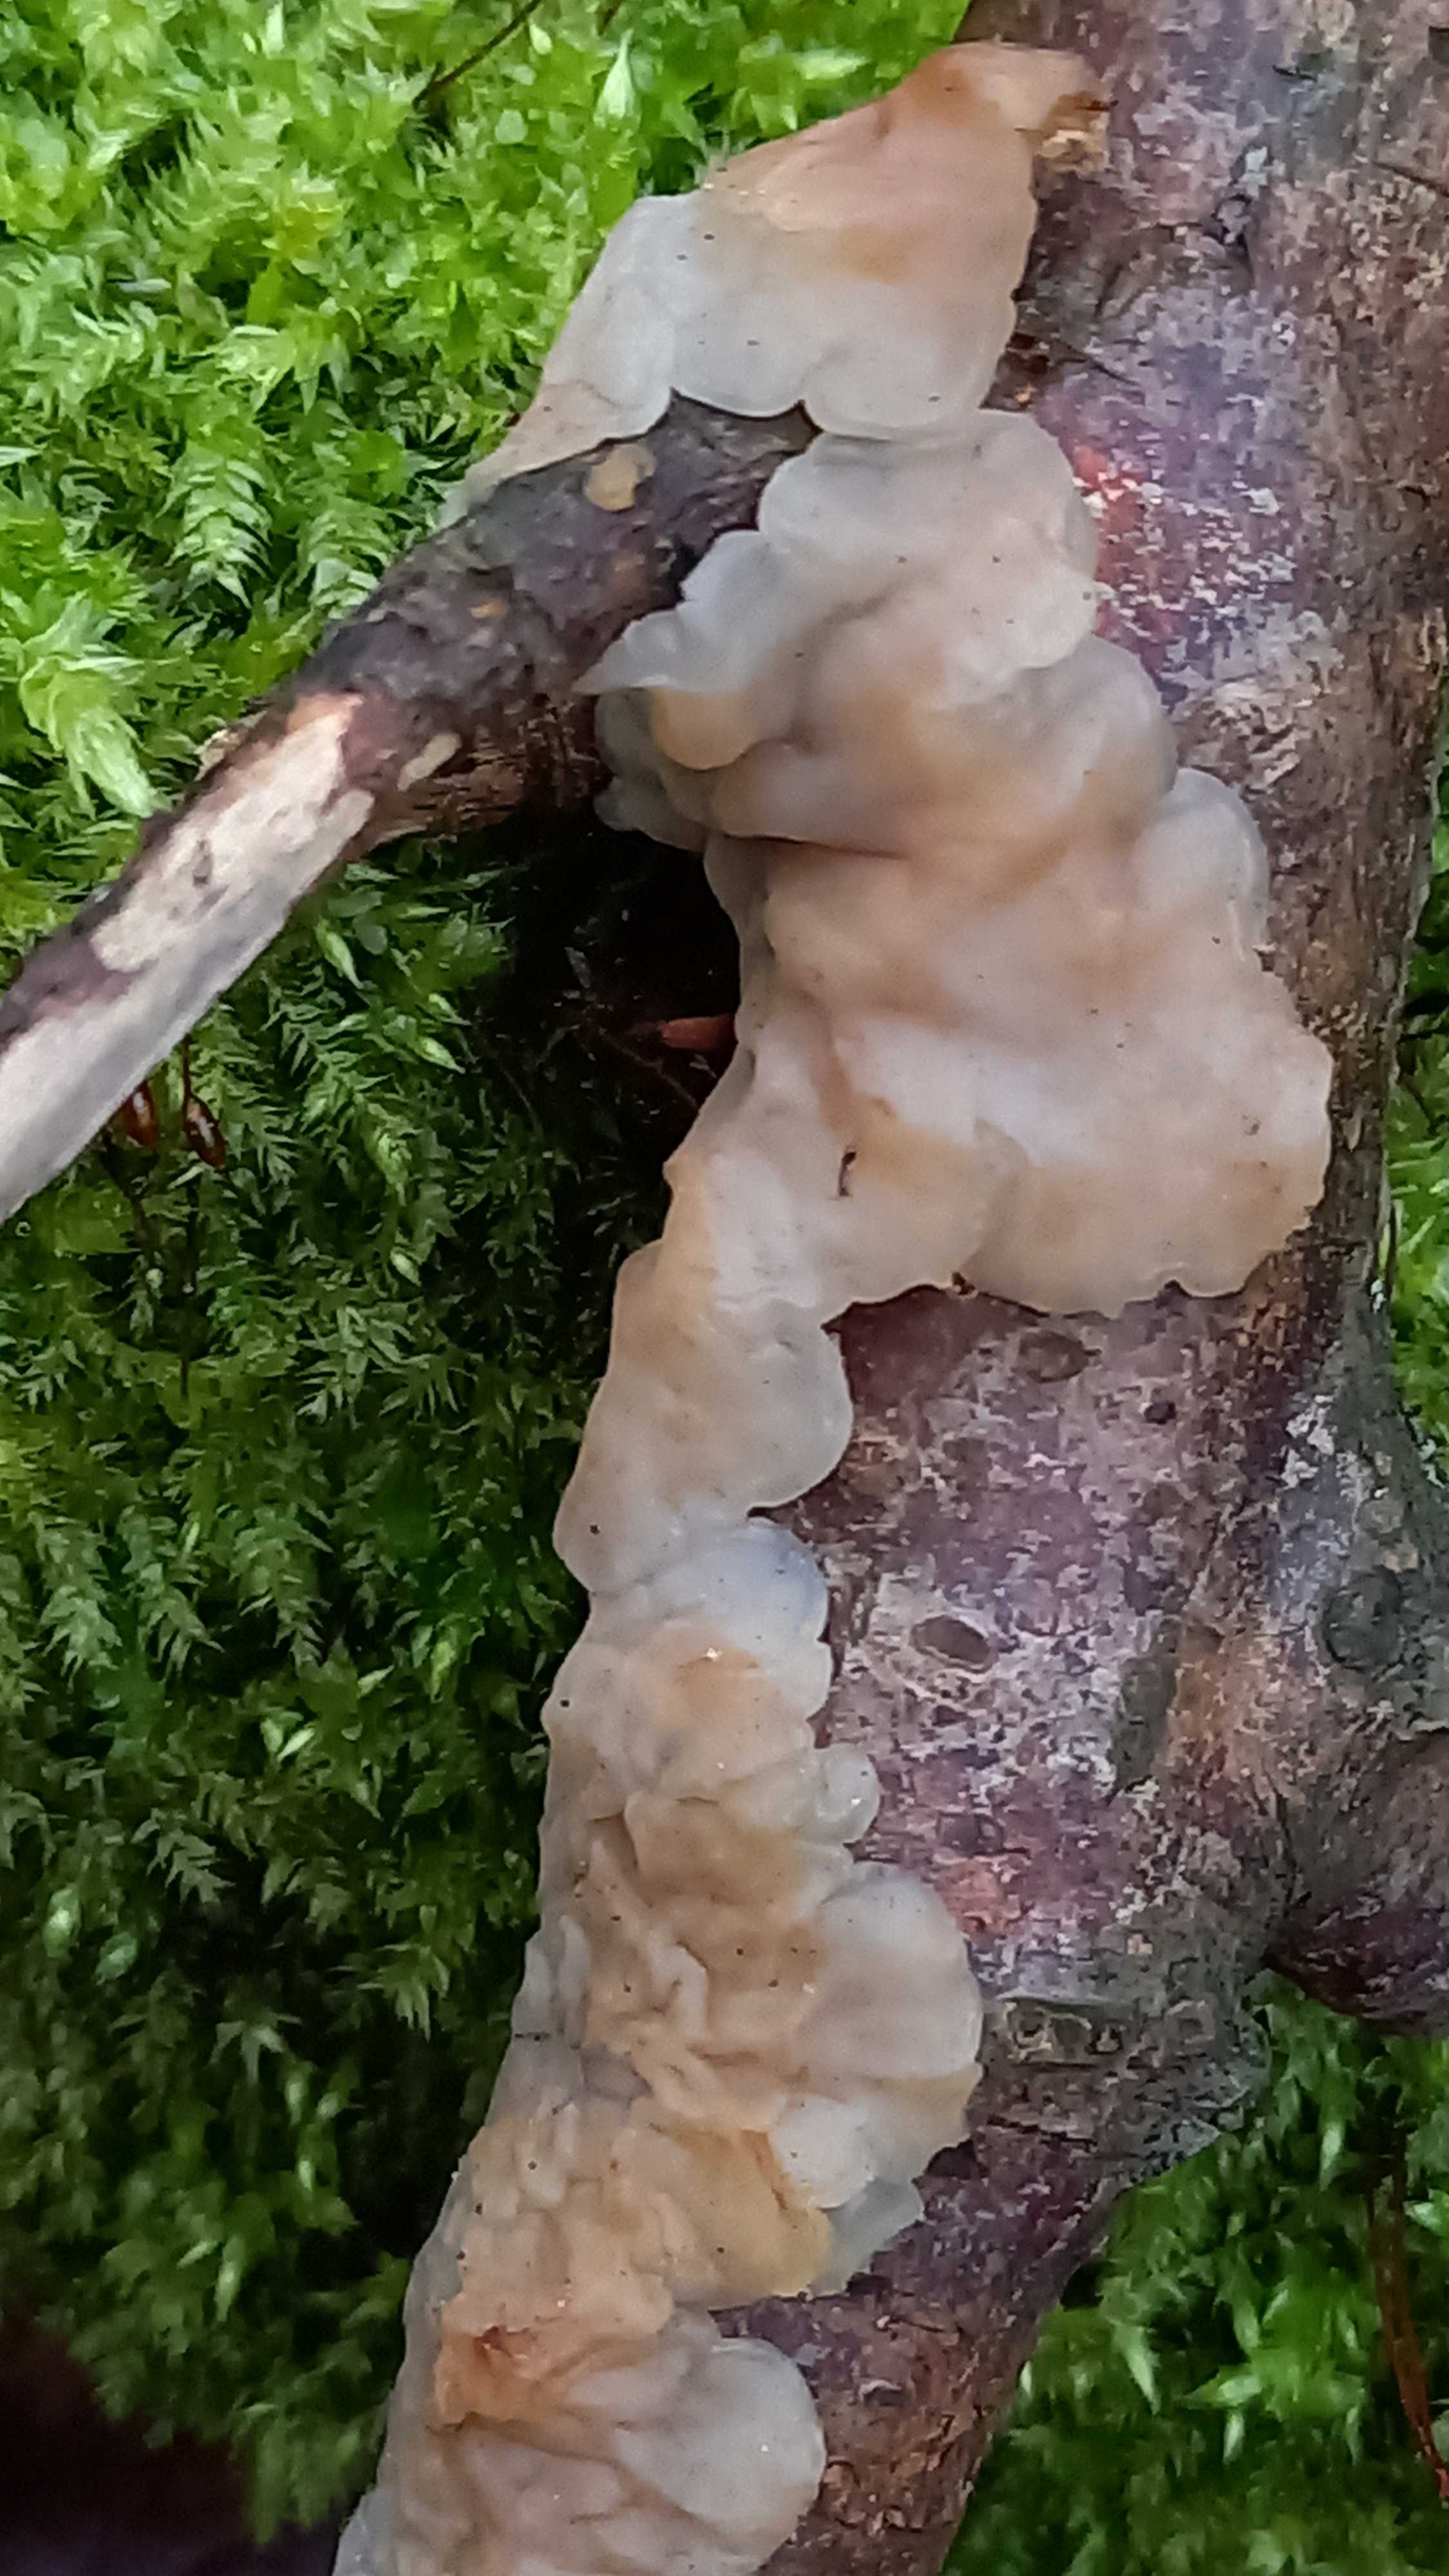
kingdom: Fungi
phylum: Basidiomycota
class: Agaricomycetes
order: Auriculariales
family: Auriculariaceae
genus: Exidia
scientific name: Exidia thuretiana
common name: hvidlig bævretop
